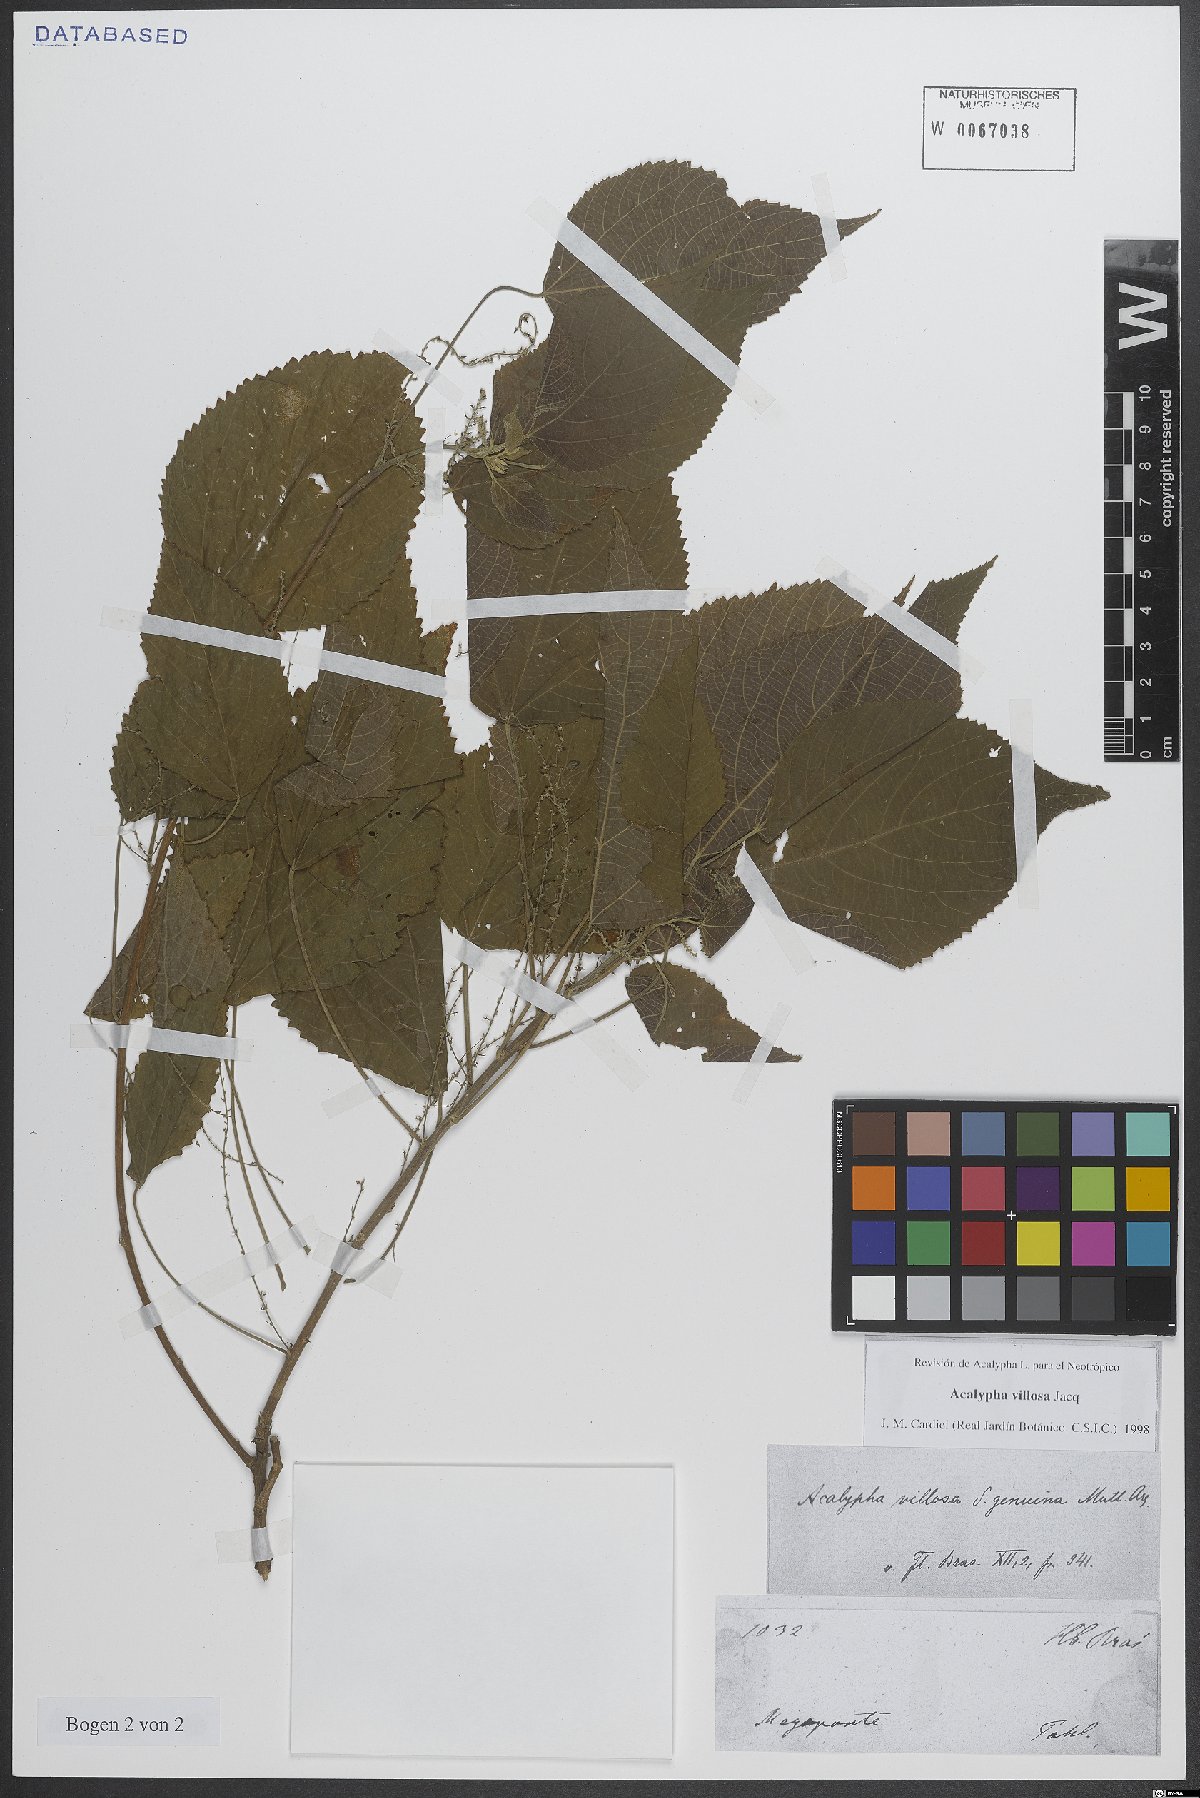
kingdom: Plantae
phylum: Tracheophyta
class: Magnoliopsida
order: Malpighiales
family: Euphorbiaceae
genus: Acalypha
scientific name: Acalypha villosa
